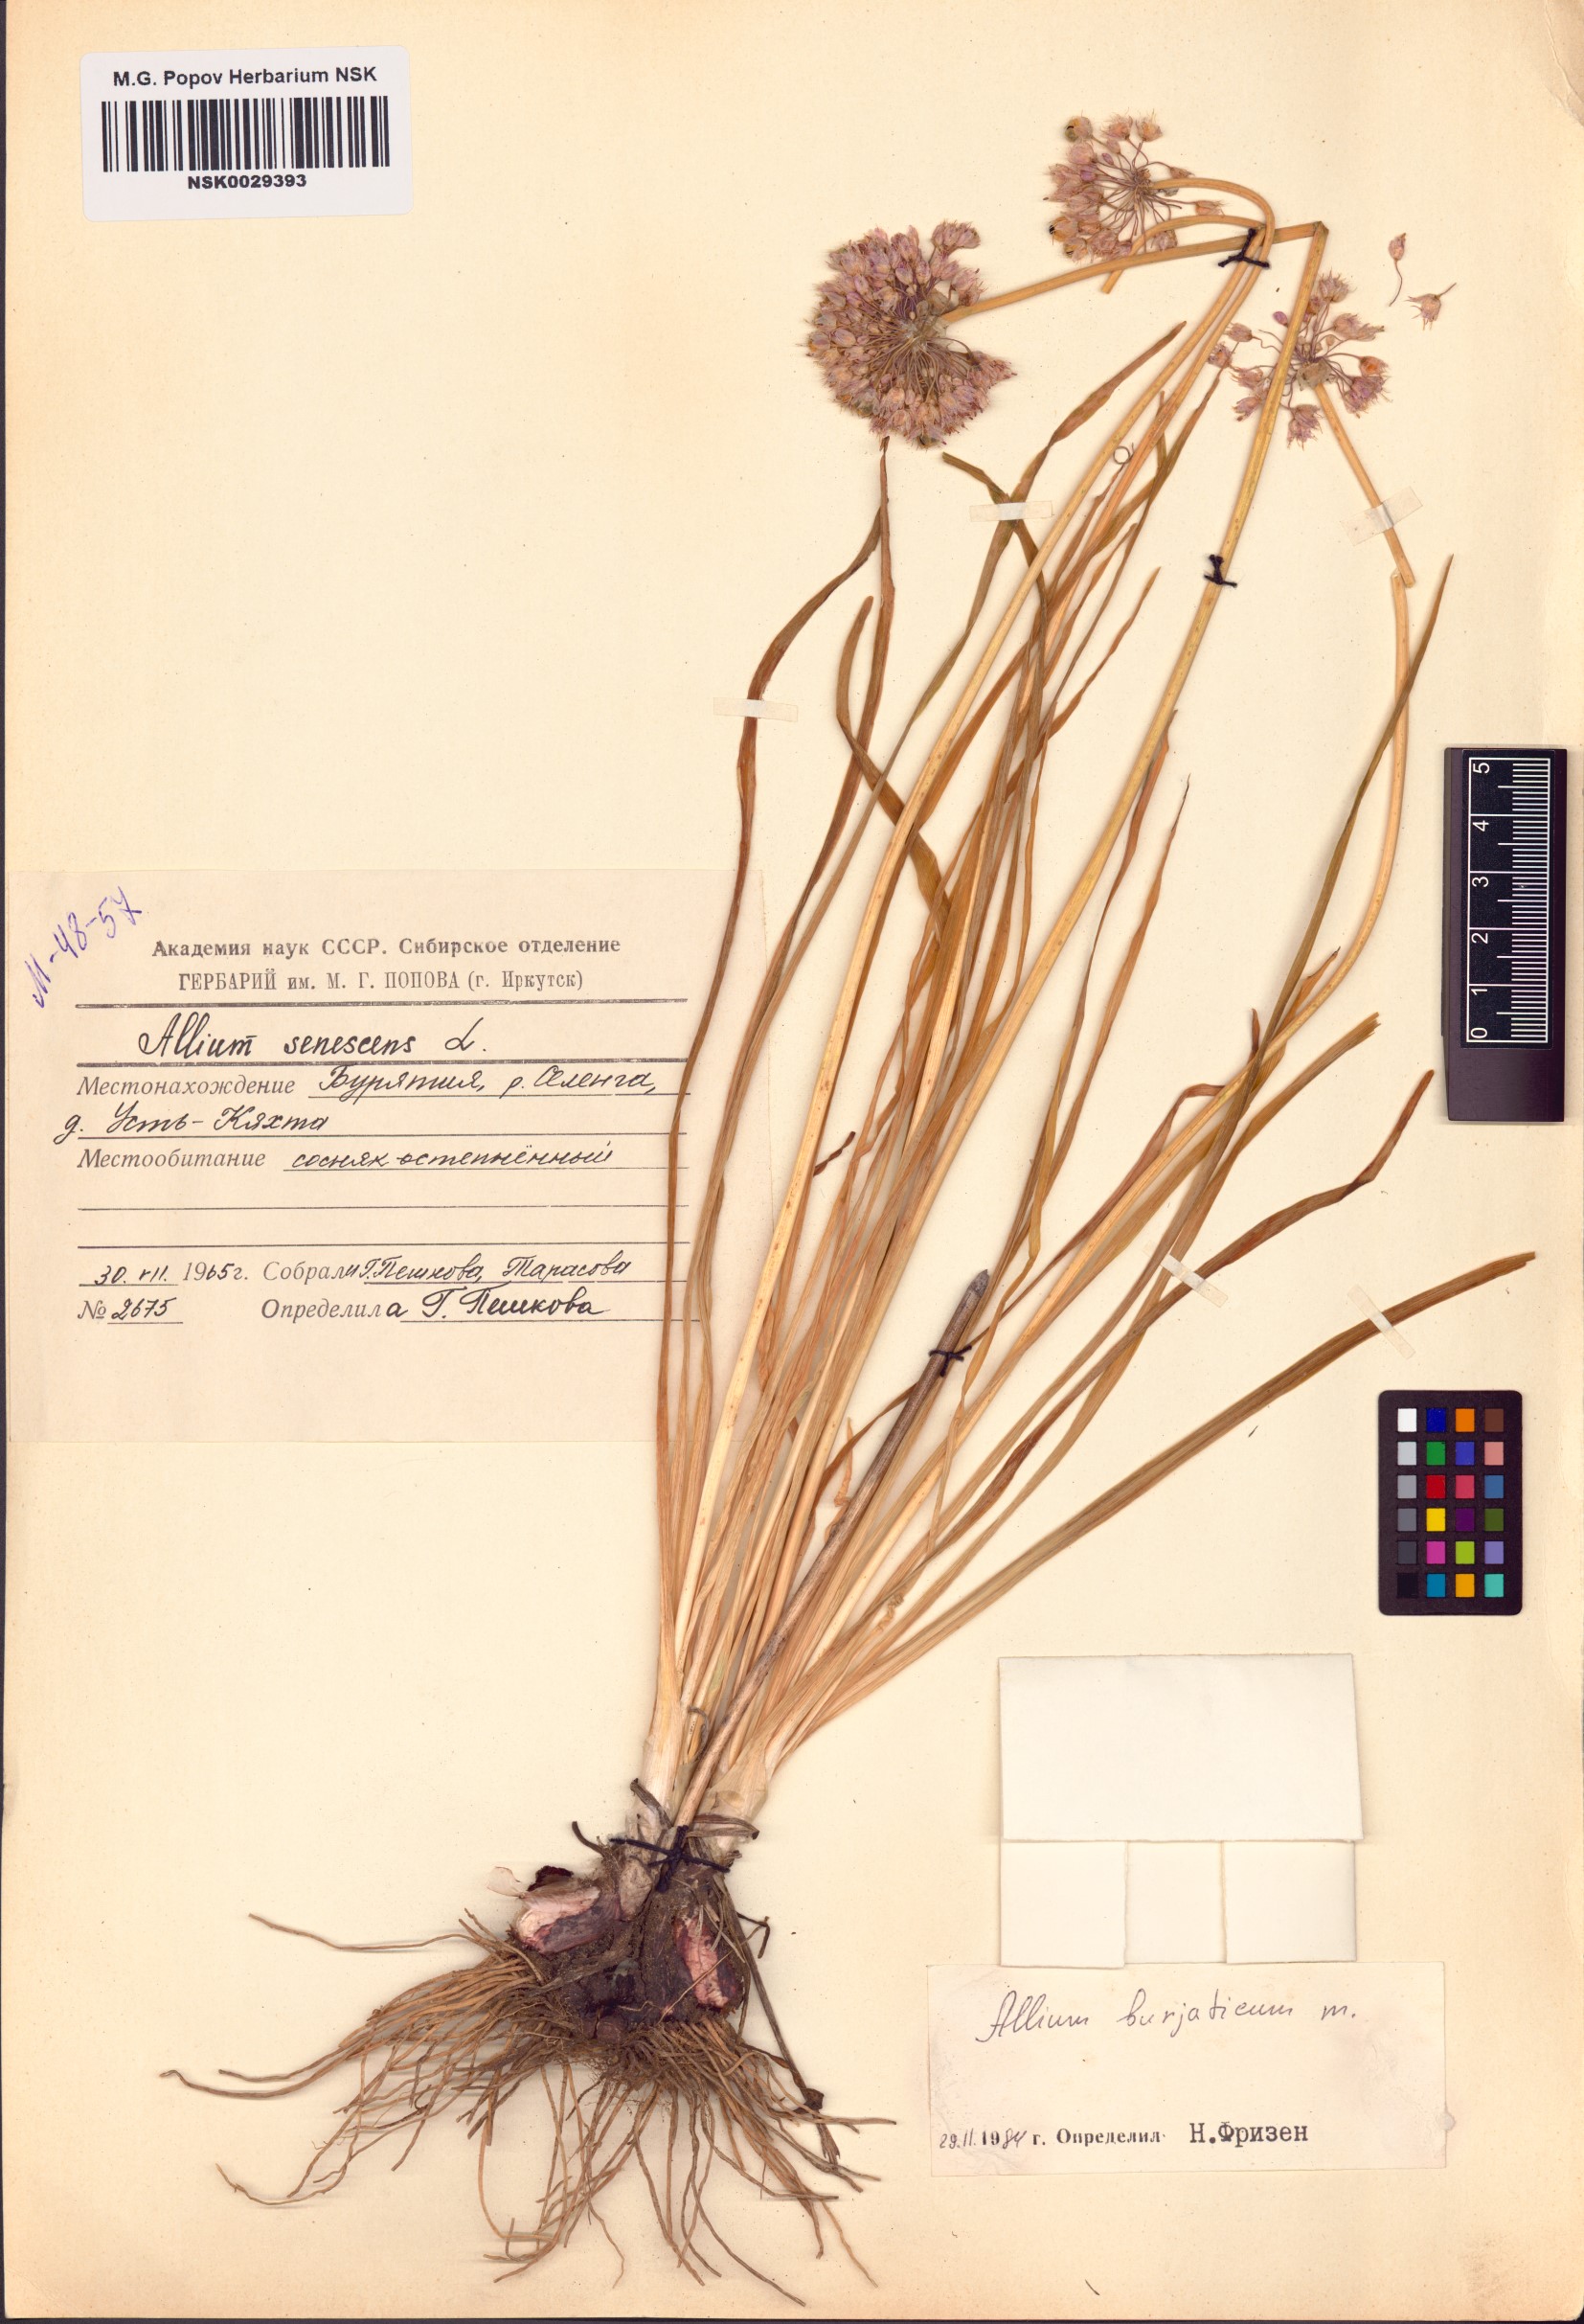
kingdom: Plantae
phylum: Tracheophyta
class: Liliopsida
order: Asparagales
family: Amaryllidaceae
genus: Allium
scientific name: Allium burjaticum
